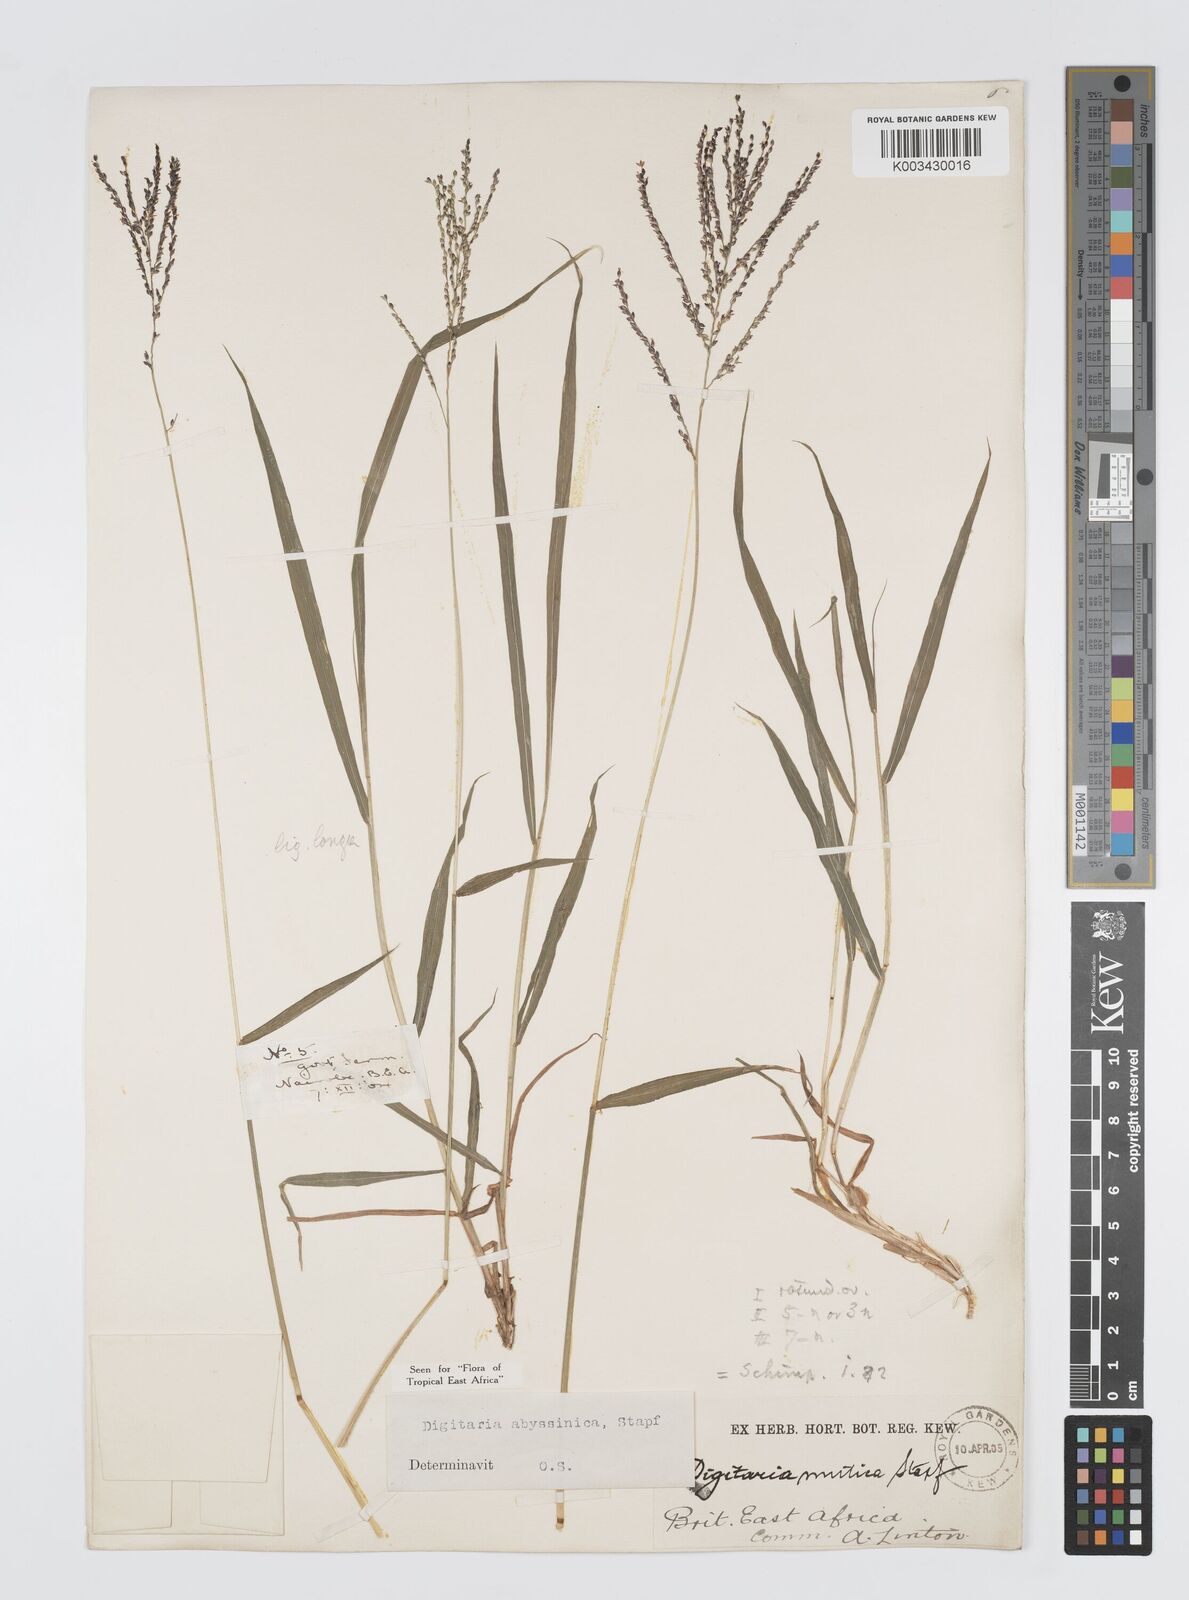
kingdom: Plantae
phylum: Tracheophyta
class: Liliopsida
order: Poales
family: Poaceae
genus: Digitaria
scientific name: Digitaria abyssinica
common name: African couchgrass
